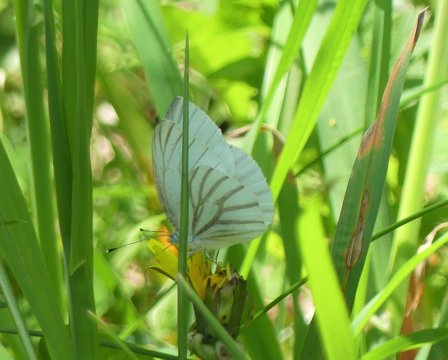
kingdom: Animalia
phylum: Arthropoda
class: Insecta
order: Lepidoptera
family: Pieridae
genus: Pieris
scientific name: Pieris oleracea
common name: Mustard White
